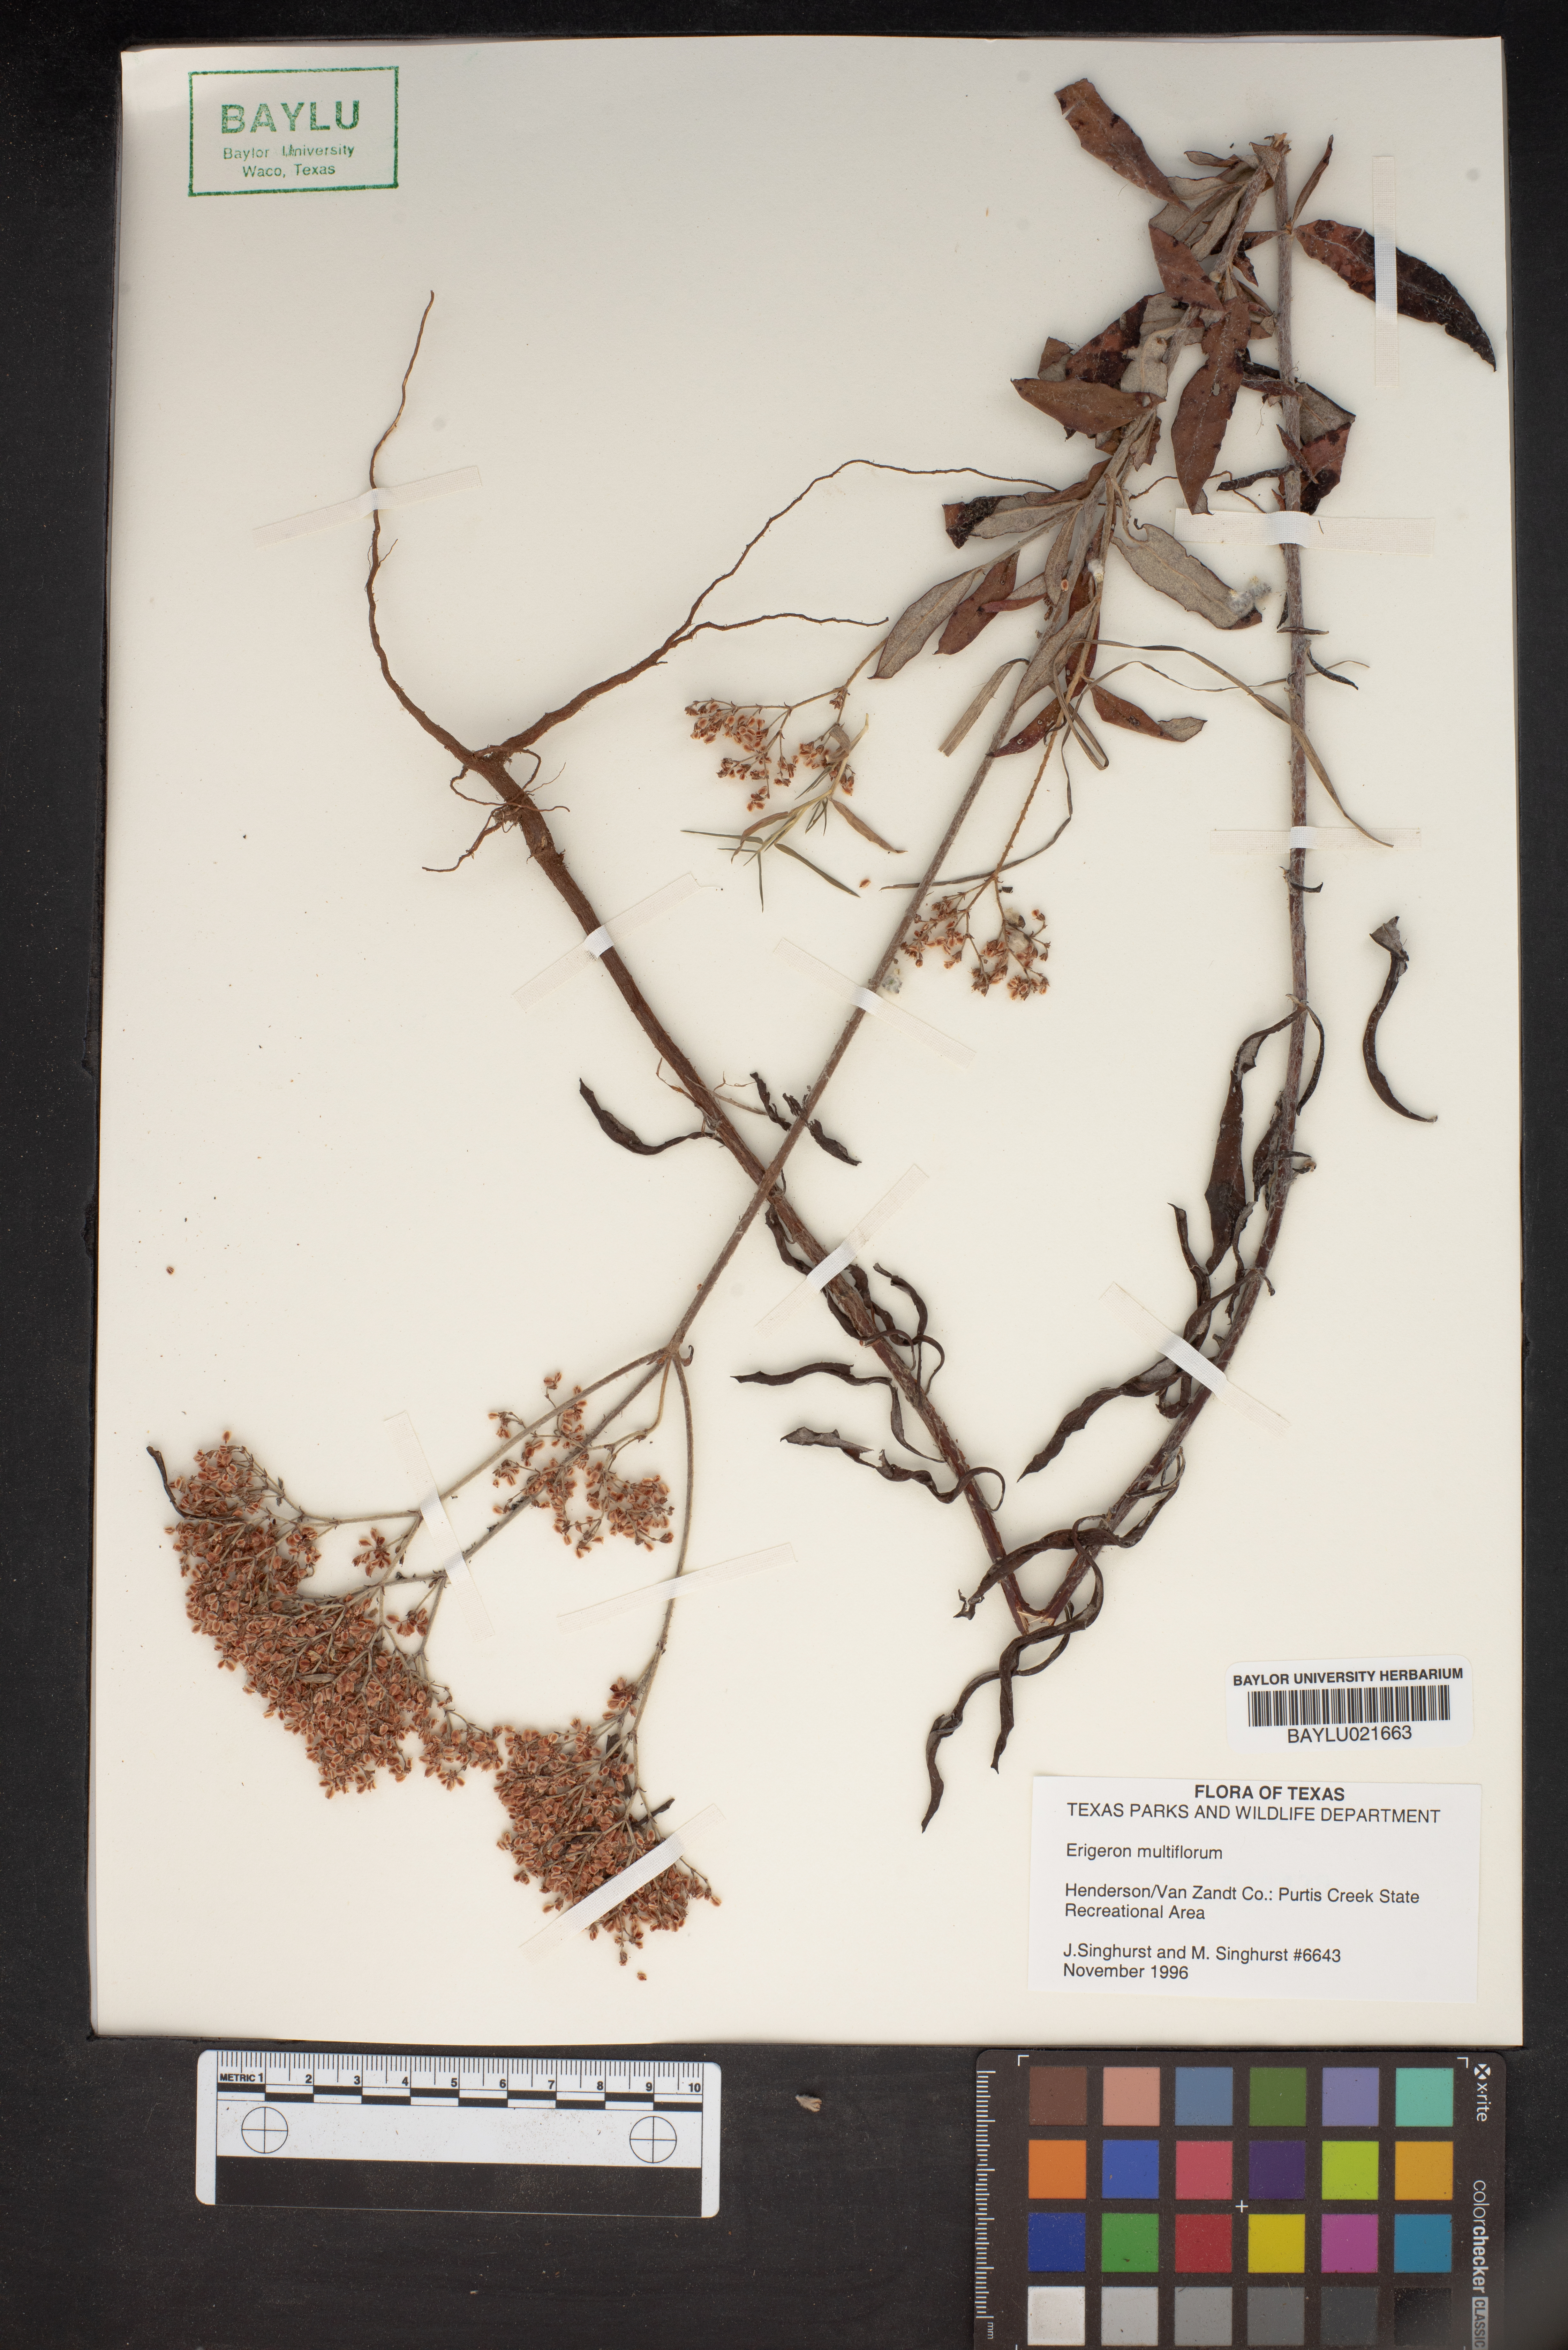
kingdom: Plantae
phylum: Tracheophyta
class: Magnoliopsida
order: Asterales
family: Asteraceae
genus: Erigeron
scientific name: Erigeron
